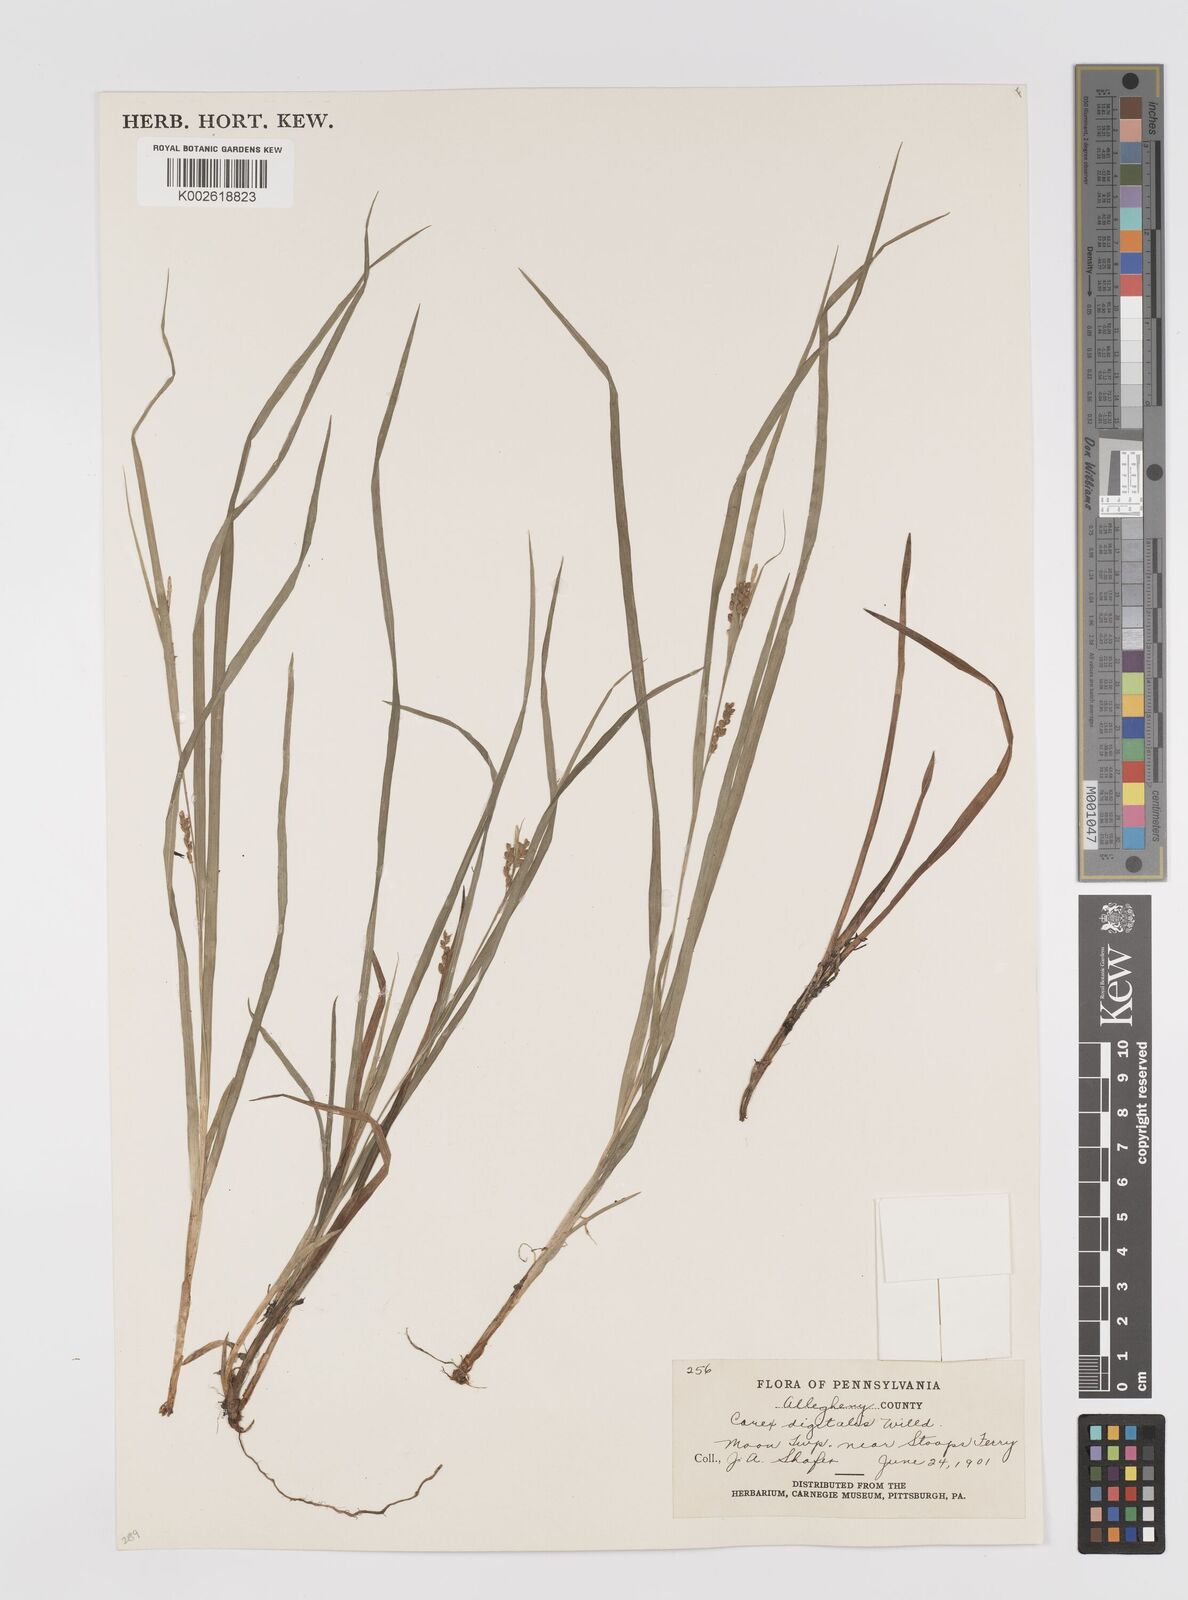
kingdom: Plantae
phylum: Tracheophyta
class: Liliopsida
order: Poales
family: Cyperaceae
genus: Carex
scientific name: Carex digitalis
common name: Slender wood sedge
